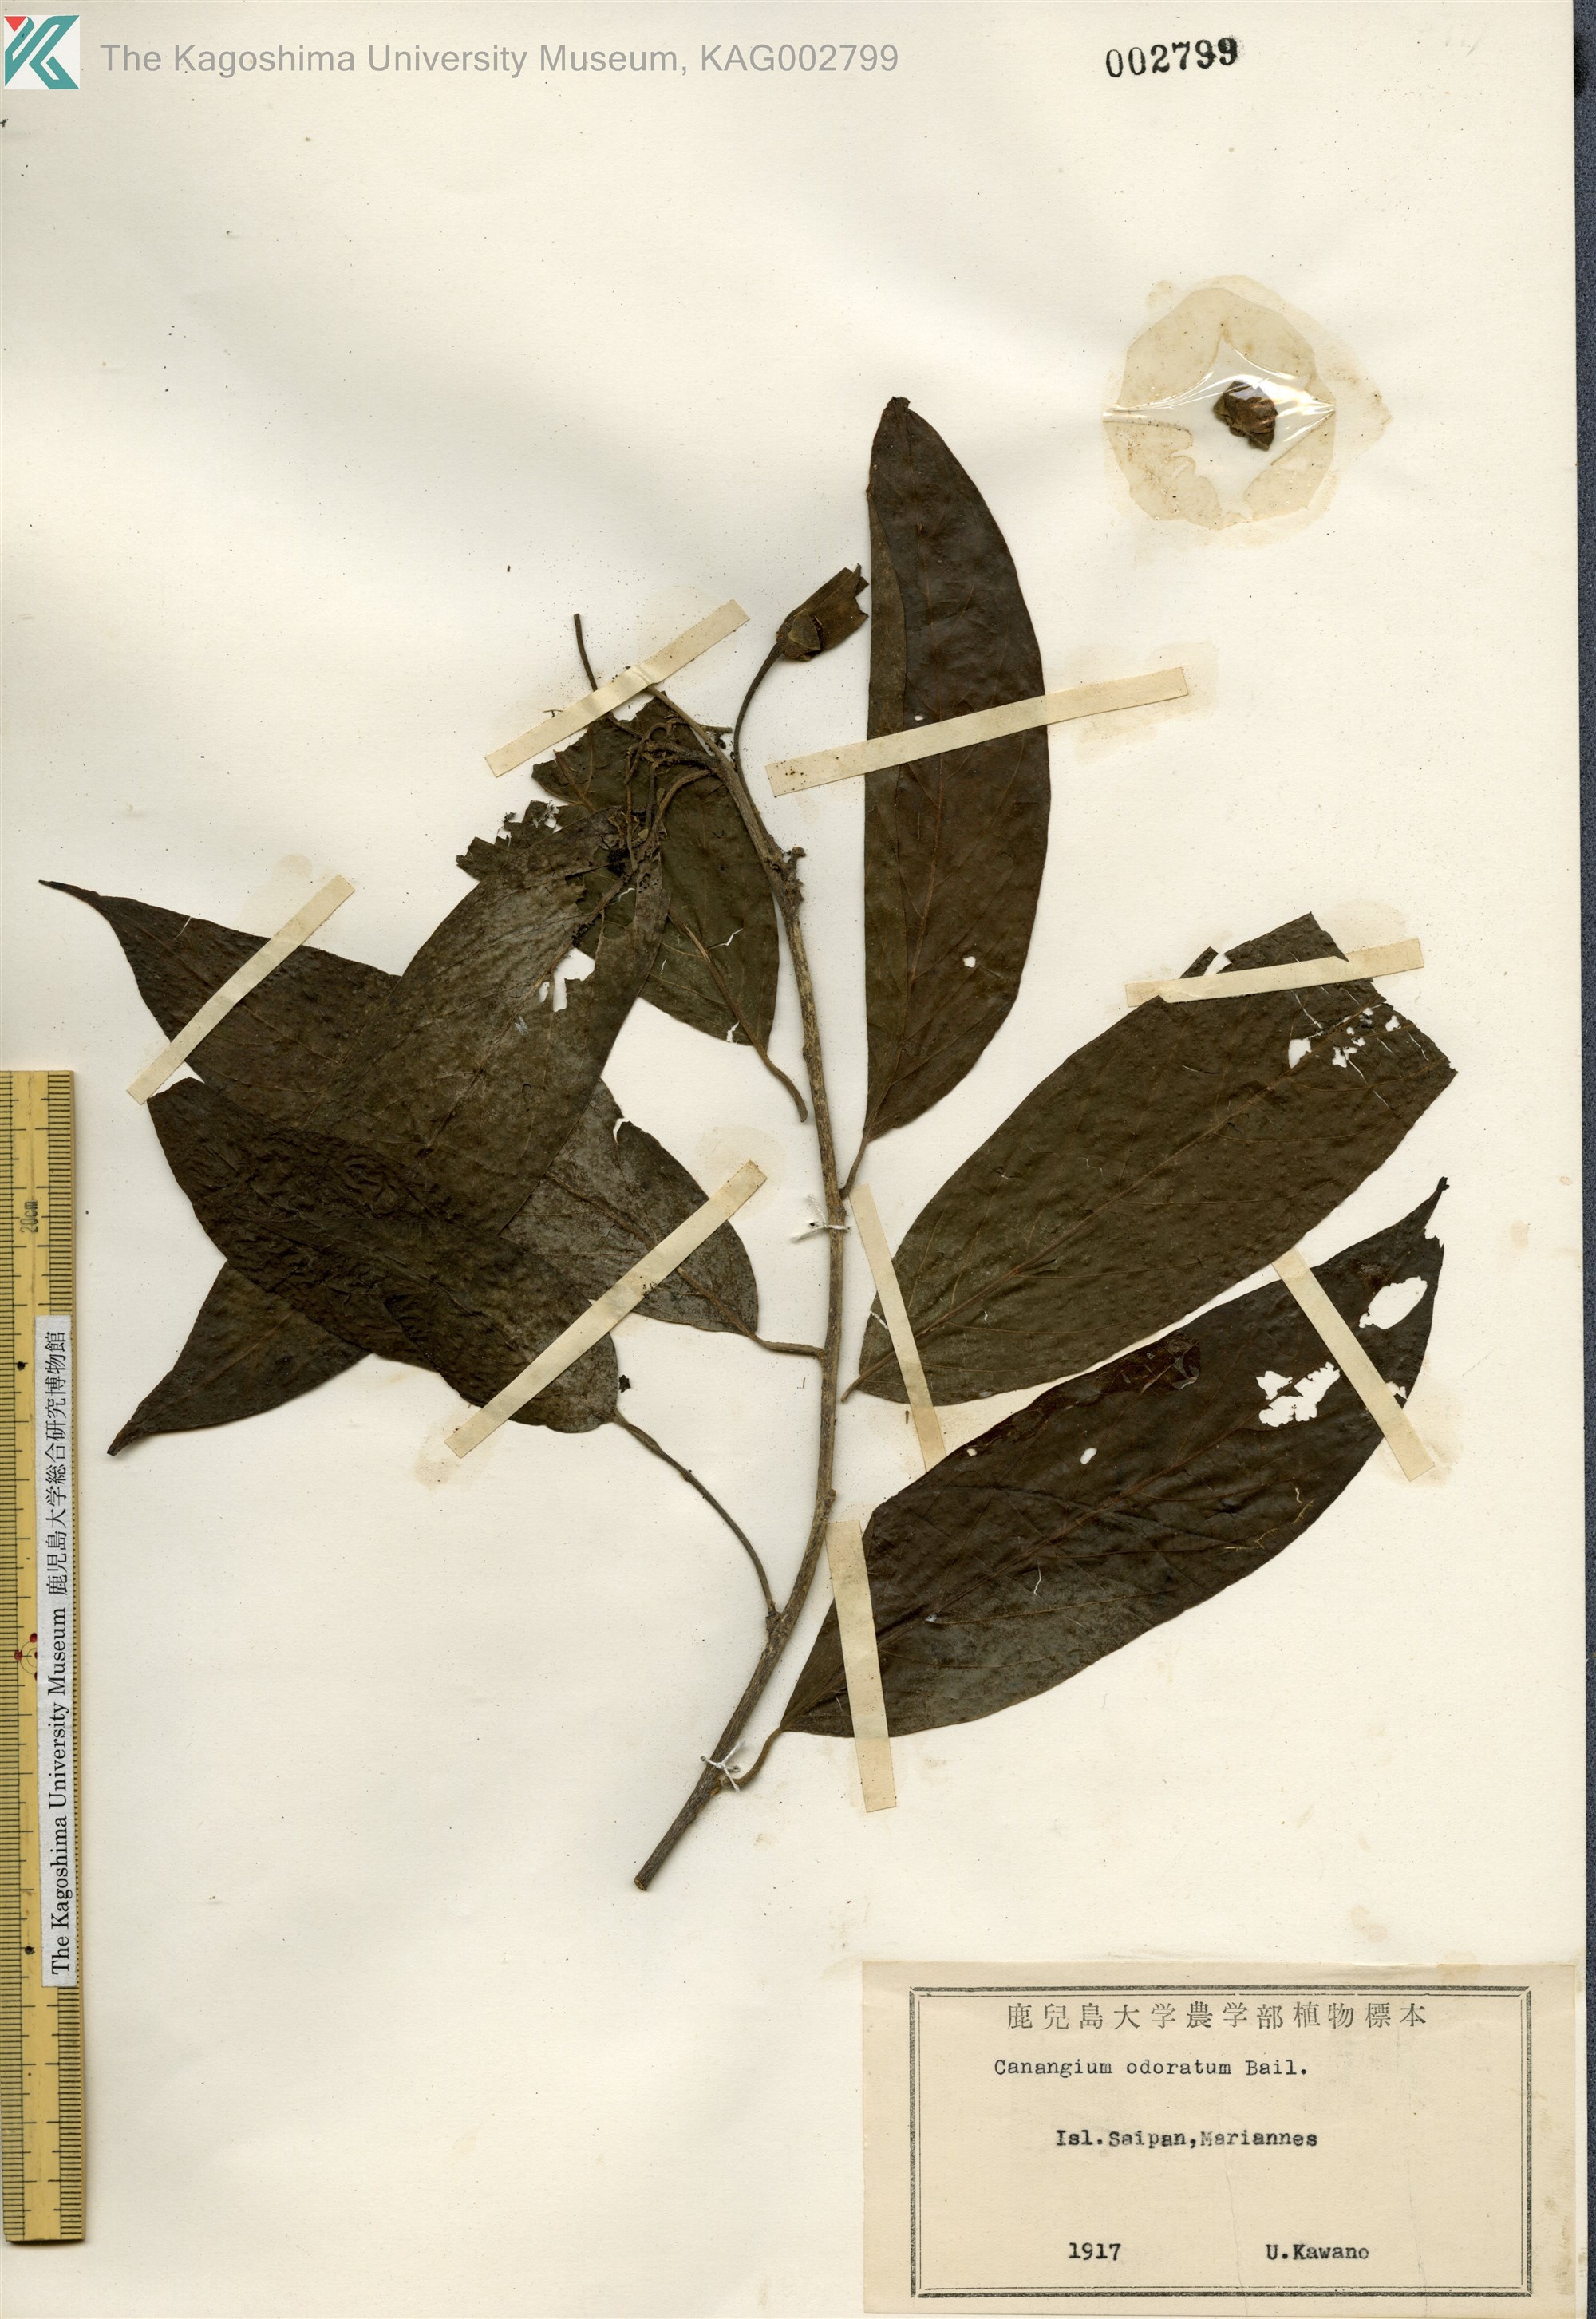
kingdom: Plantae
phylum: Tracheophyta
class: Magnoliopsida
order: Magnoliales
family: Annonaceae
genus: Cananga
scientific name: Cananga odorata
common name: Cananga tree
